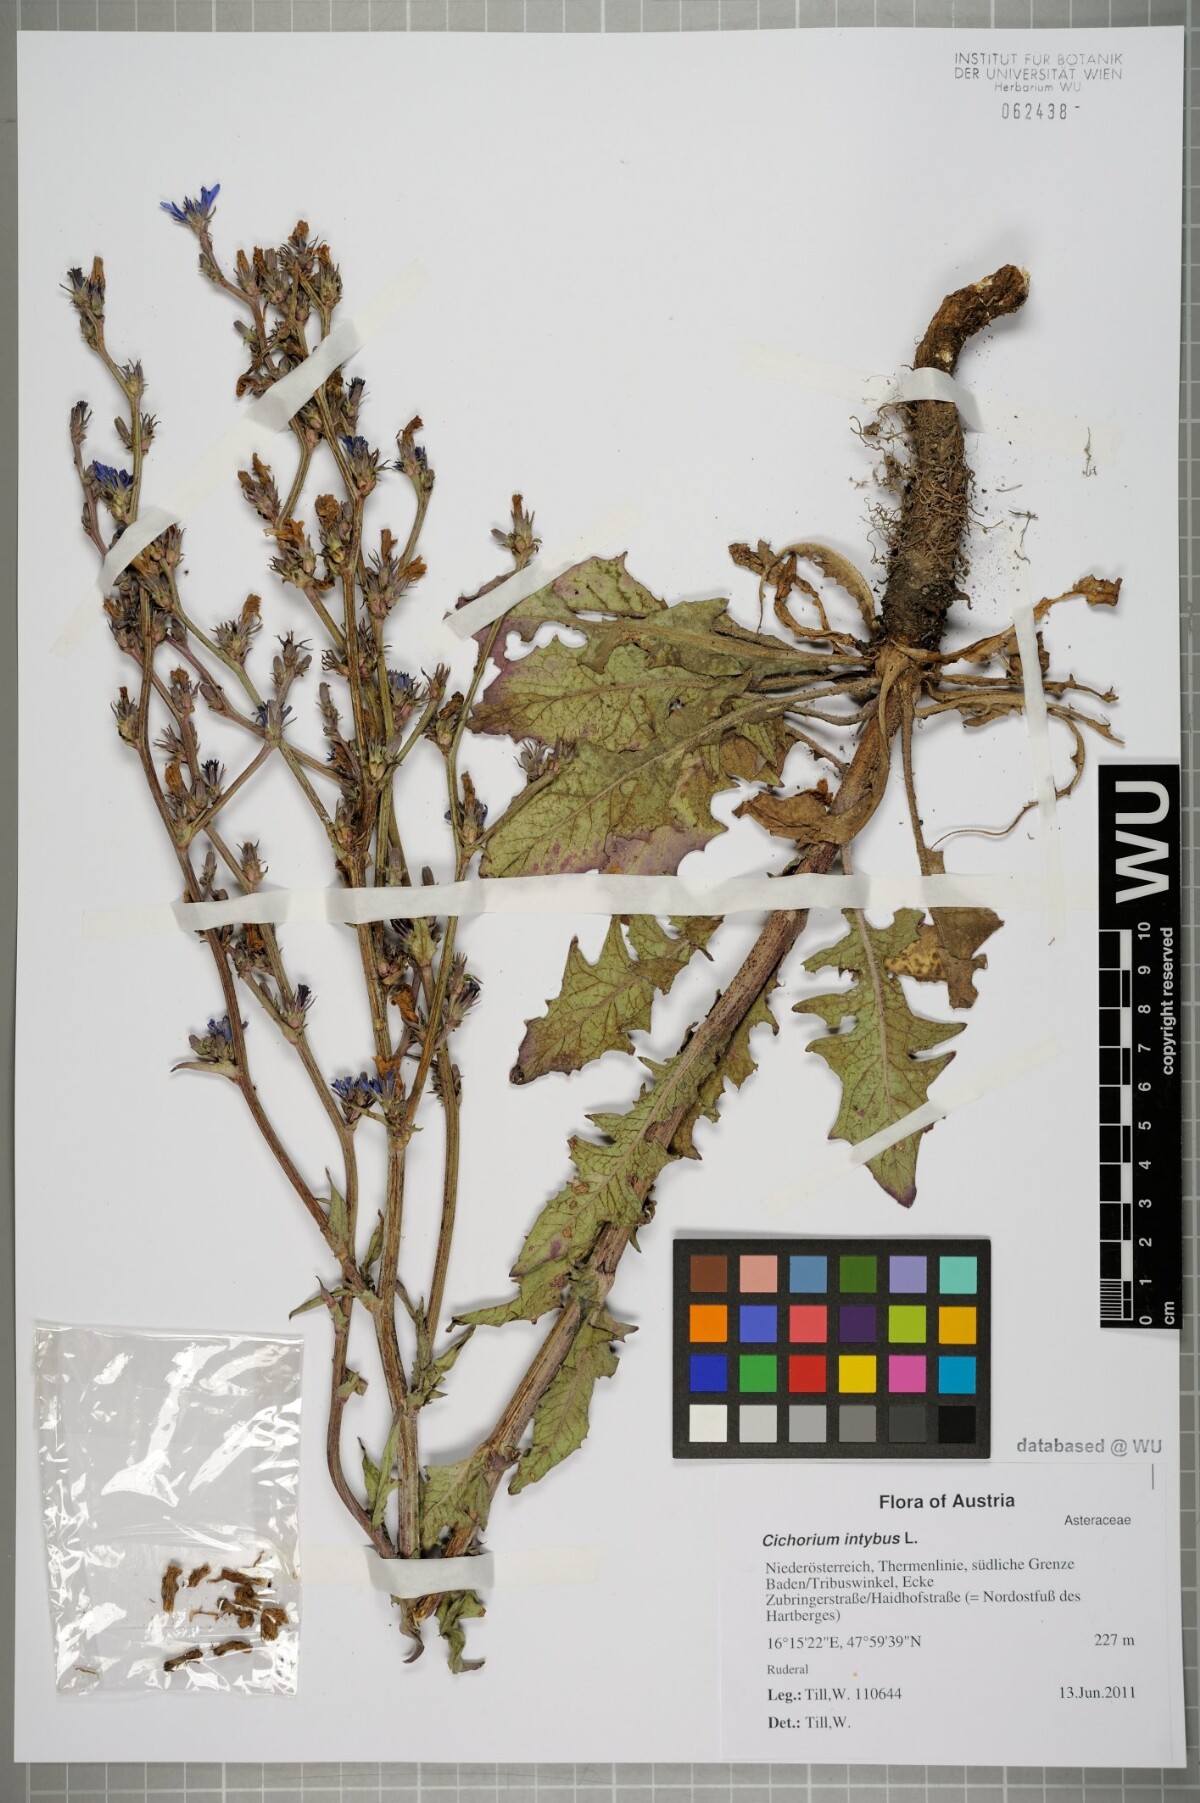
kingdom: Plantae
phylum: Tracheophyta
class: Magnoliopsida
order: Asterales
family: Asteraceae
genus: Cichorium
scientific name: Cichorium intybus
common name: Chicory
